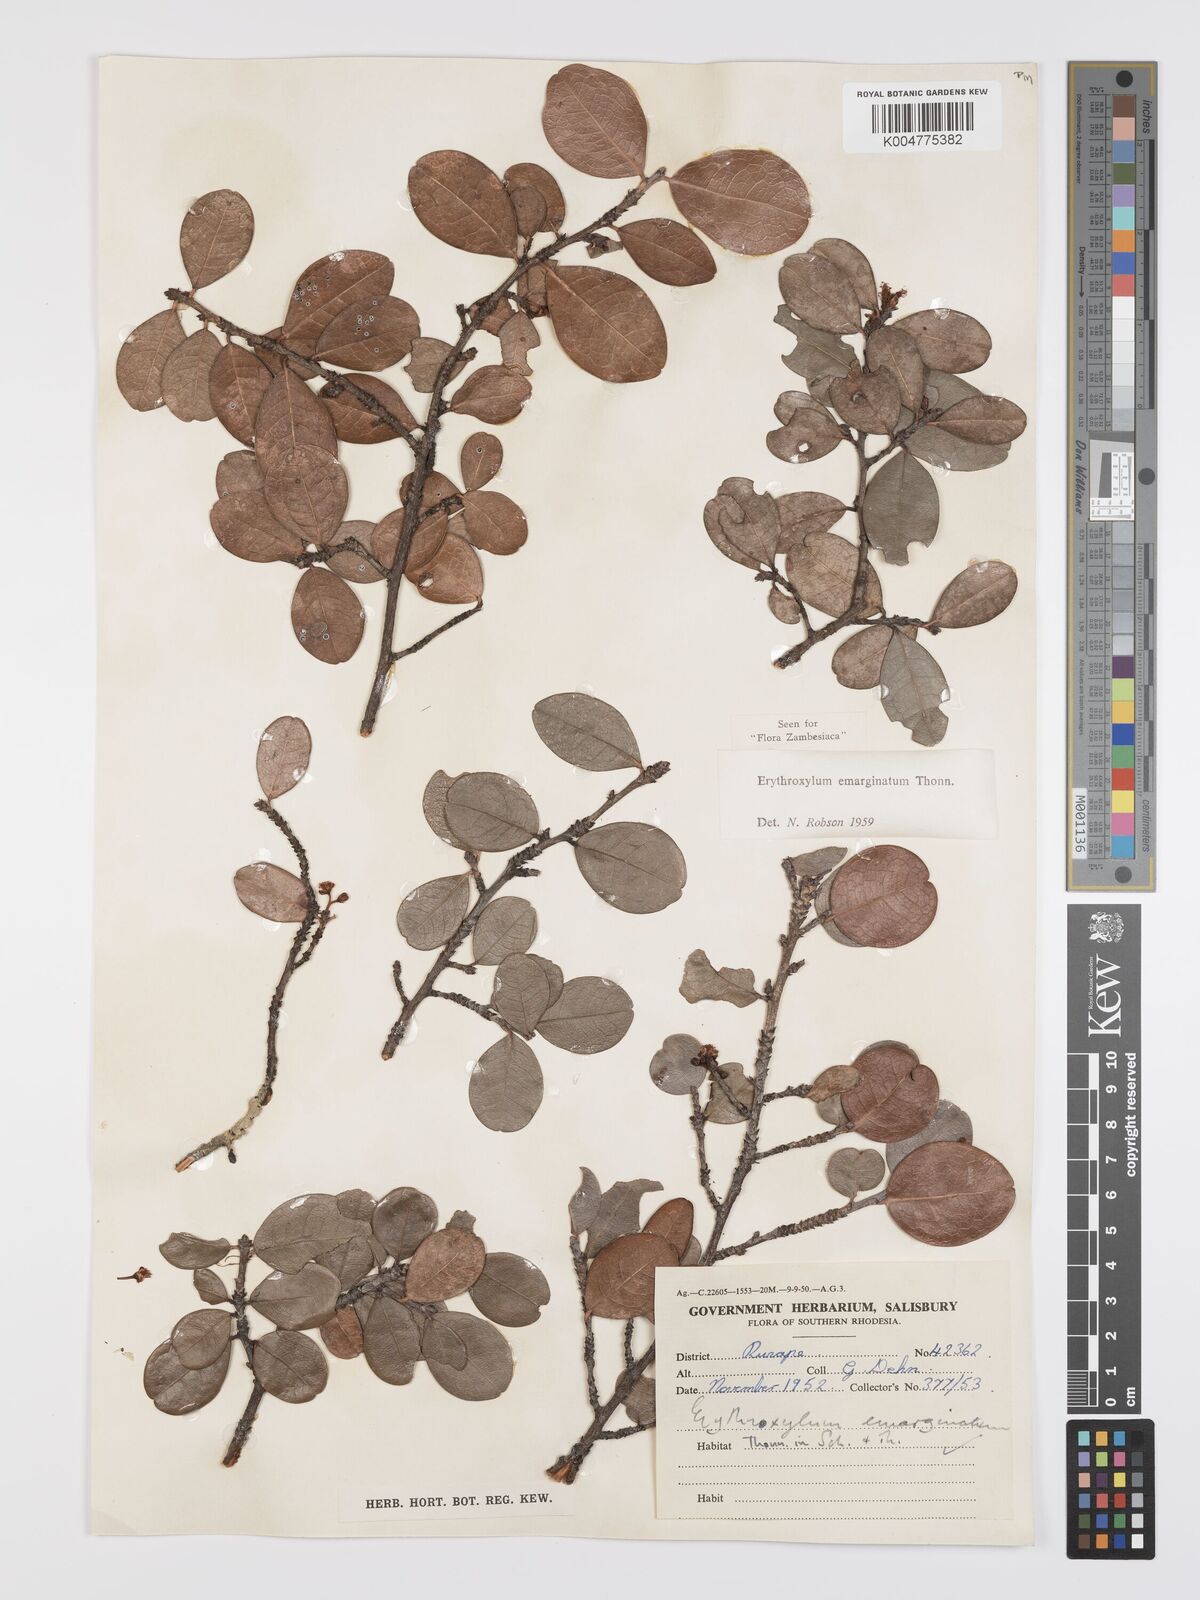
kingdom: Plantae
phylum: Tracheophyta
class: Magnoliopsida
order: Malpighiales
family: Erythroxylaceae
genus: Erythroxylum
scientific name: Erythroxylum emarginatum
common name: African coca-tree
